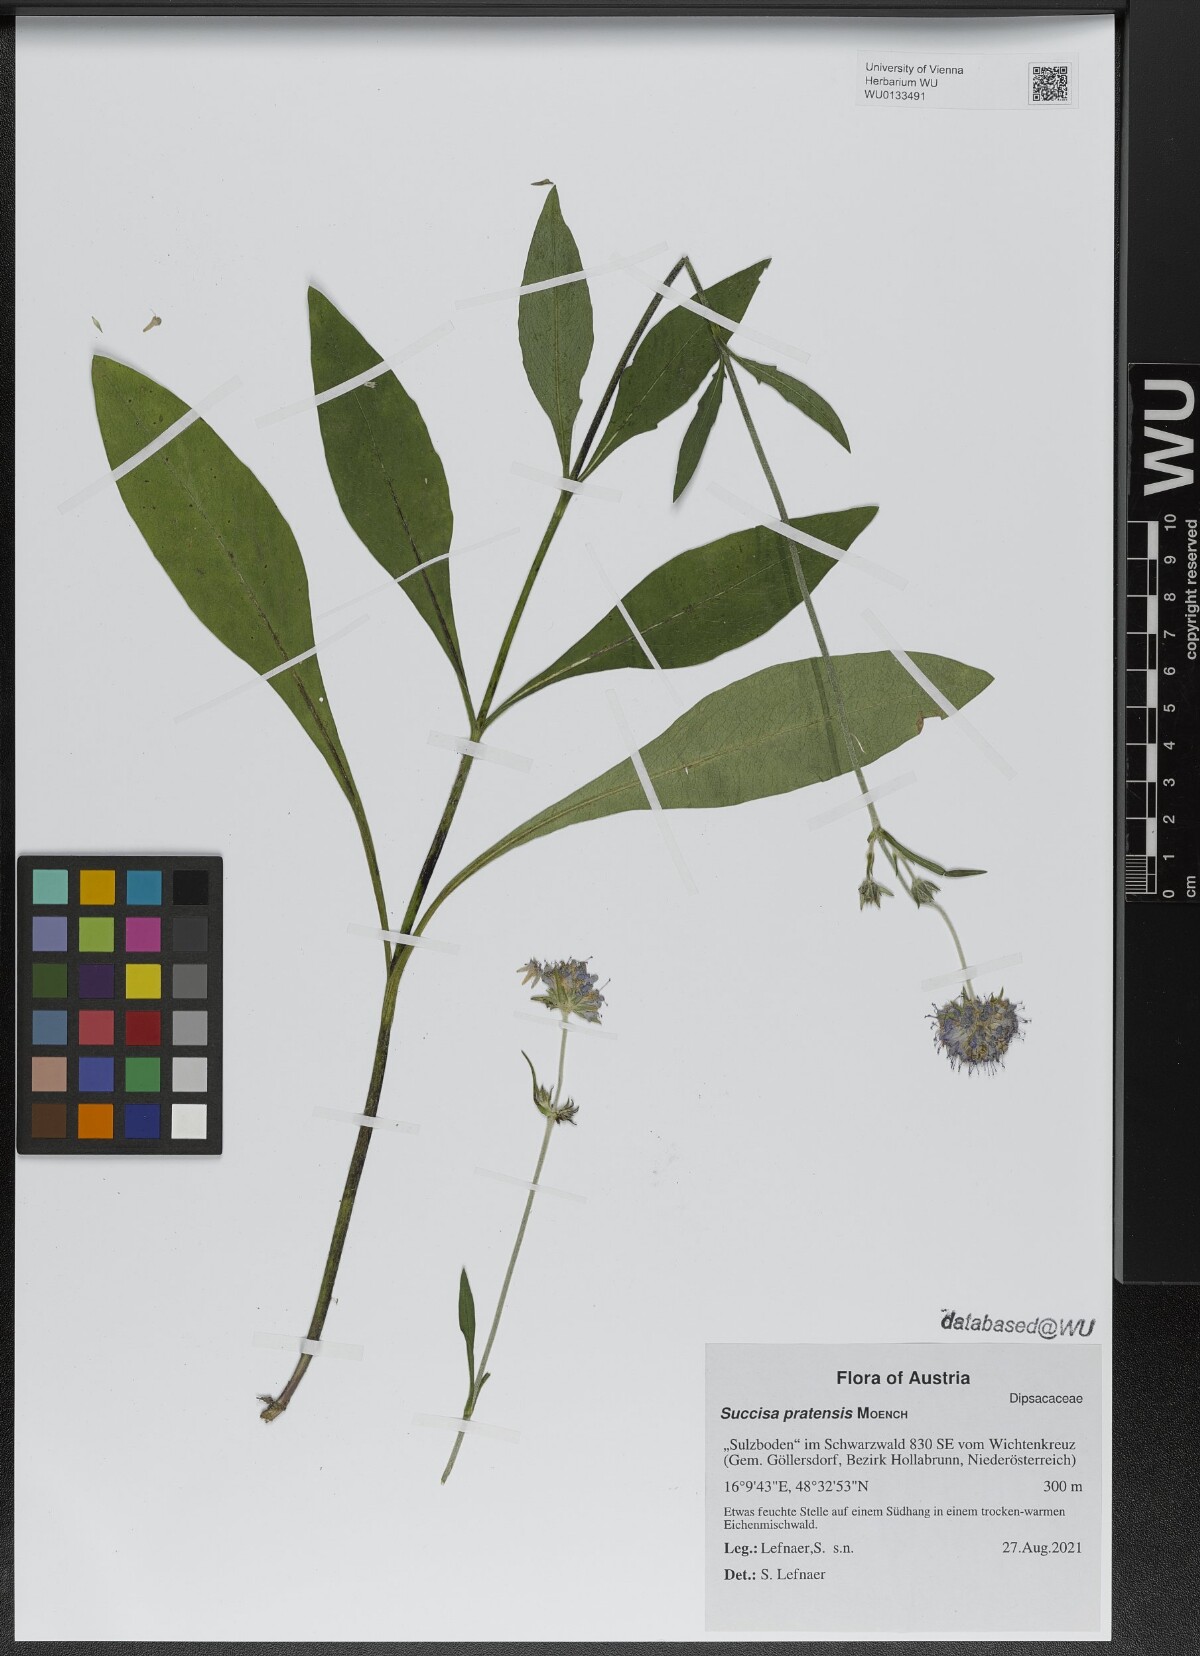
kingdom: Plantae
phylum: Tracheophyta
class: Magnoliopsida
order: Dipsacales
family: Caprifoliaceae
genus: Succisa
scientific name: Succisa pratensis
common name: Devil's-bit
